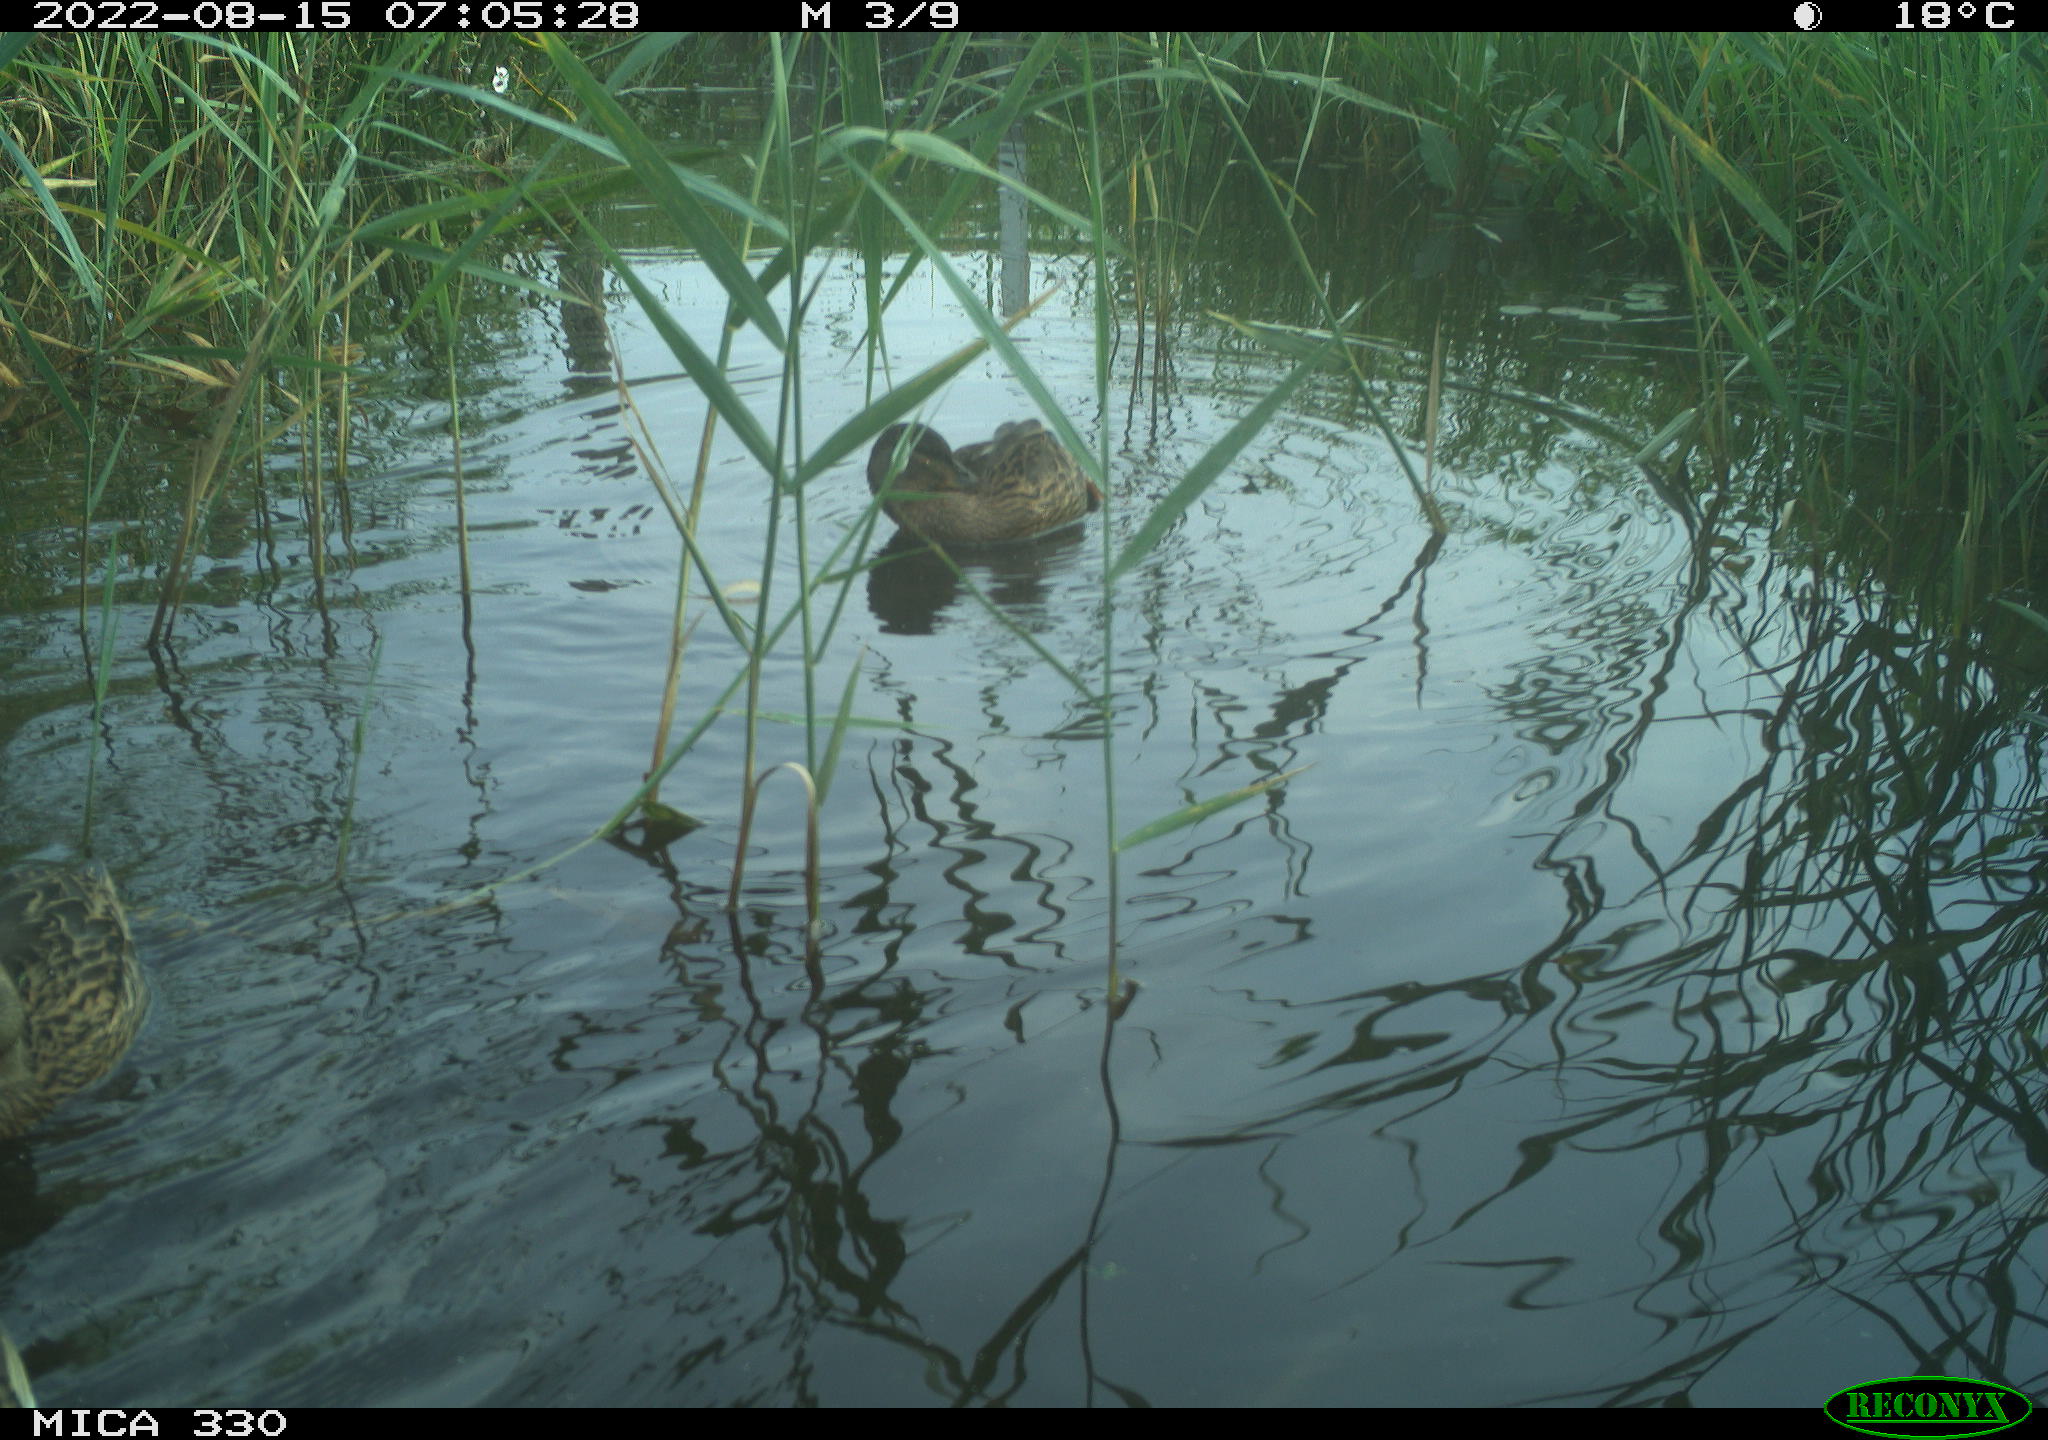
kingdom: Animalia
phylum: Chordata
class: Aves
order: Anseriformes
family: Anatidae
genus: Anas
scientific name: Anas platyrhynchos
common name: Mallard
